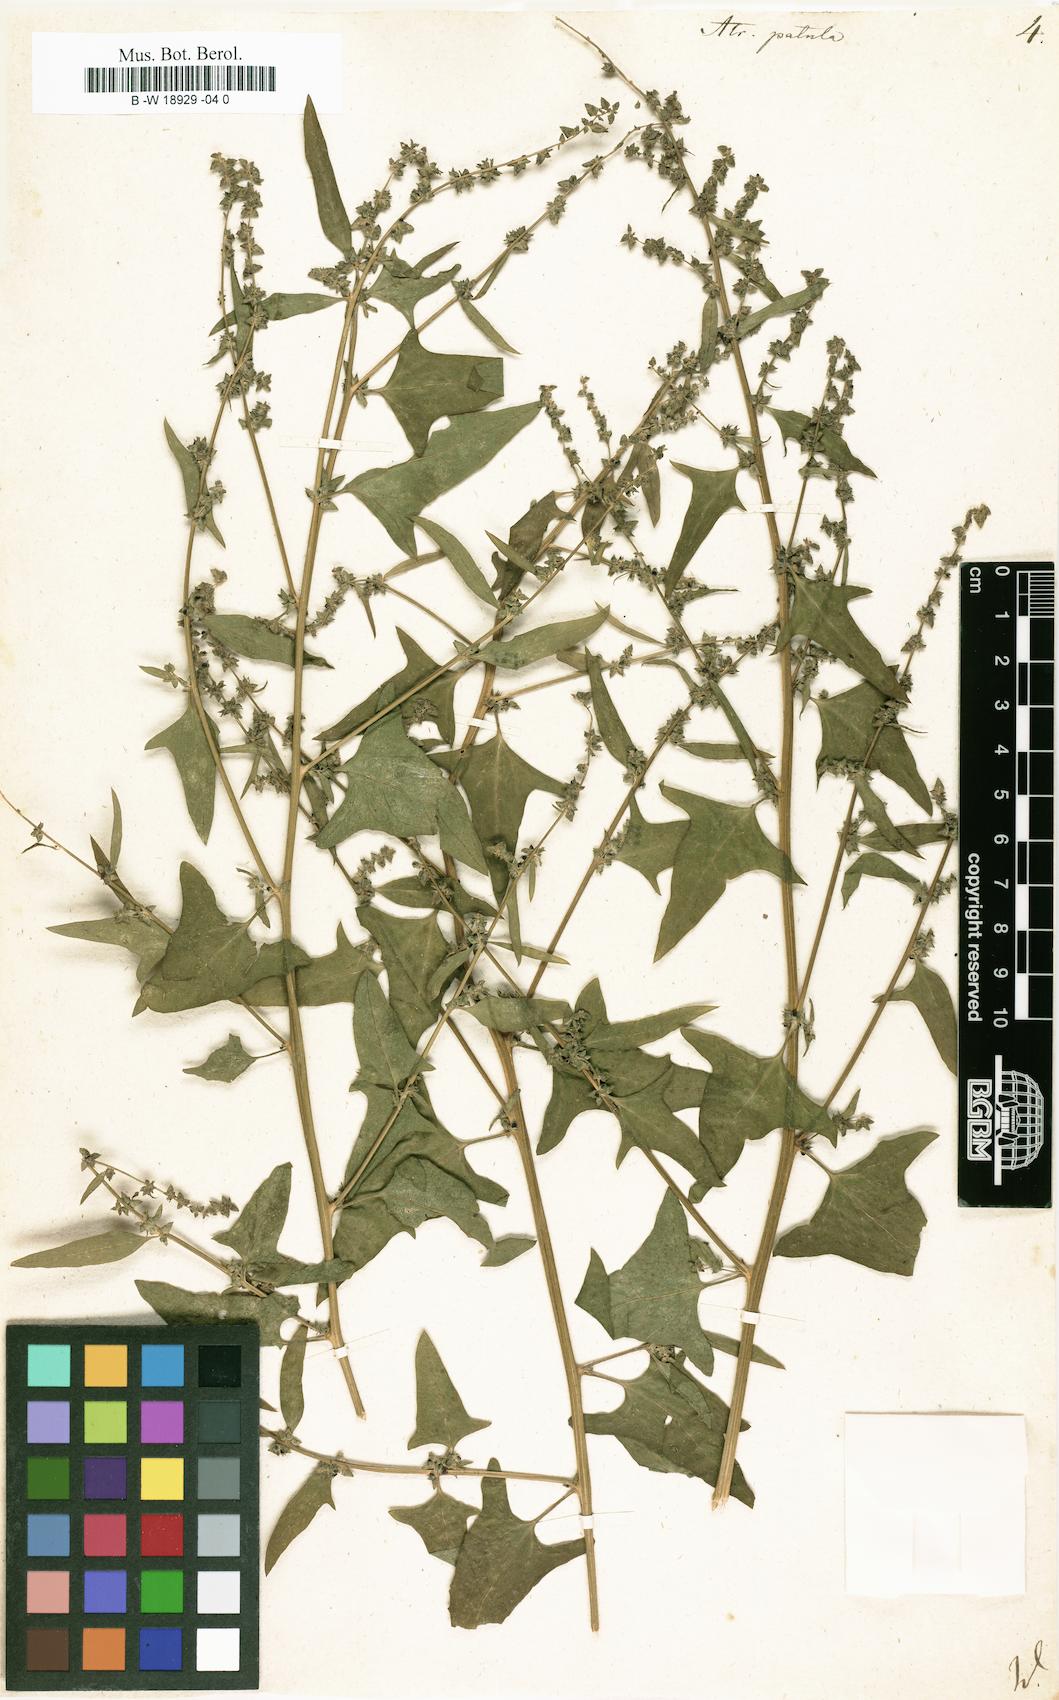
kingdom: Plantae
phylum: Tracheophyta
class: Magnoliopsida
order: Caryophyllales
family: Amaranthaceae
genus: Atriplex
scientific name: Atriplex patula
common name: Common orache
